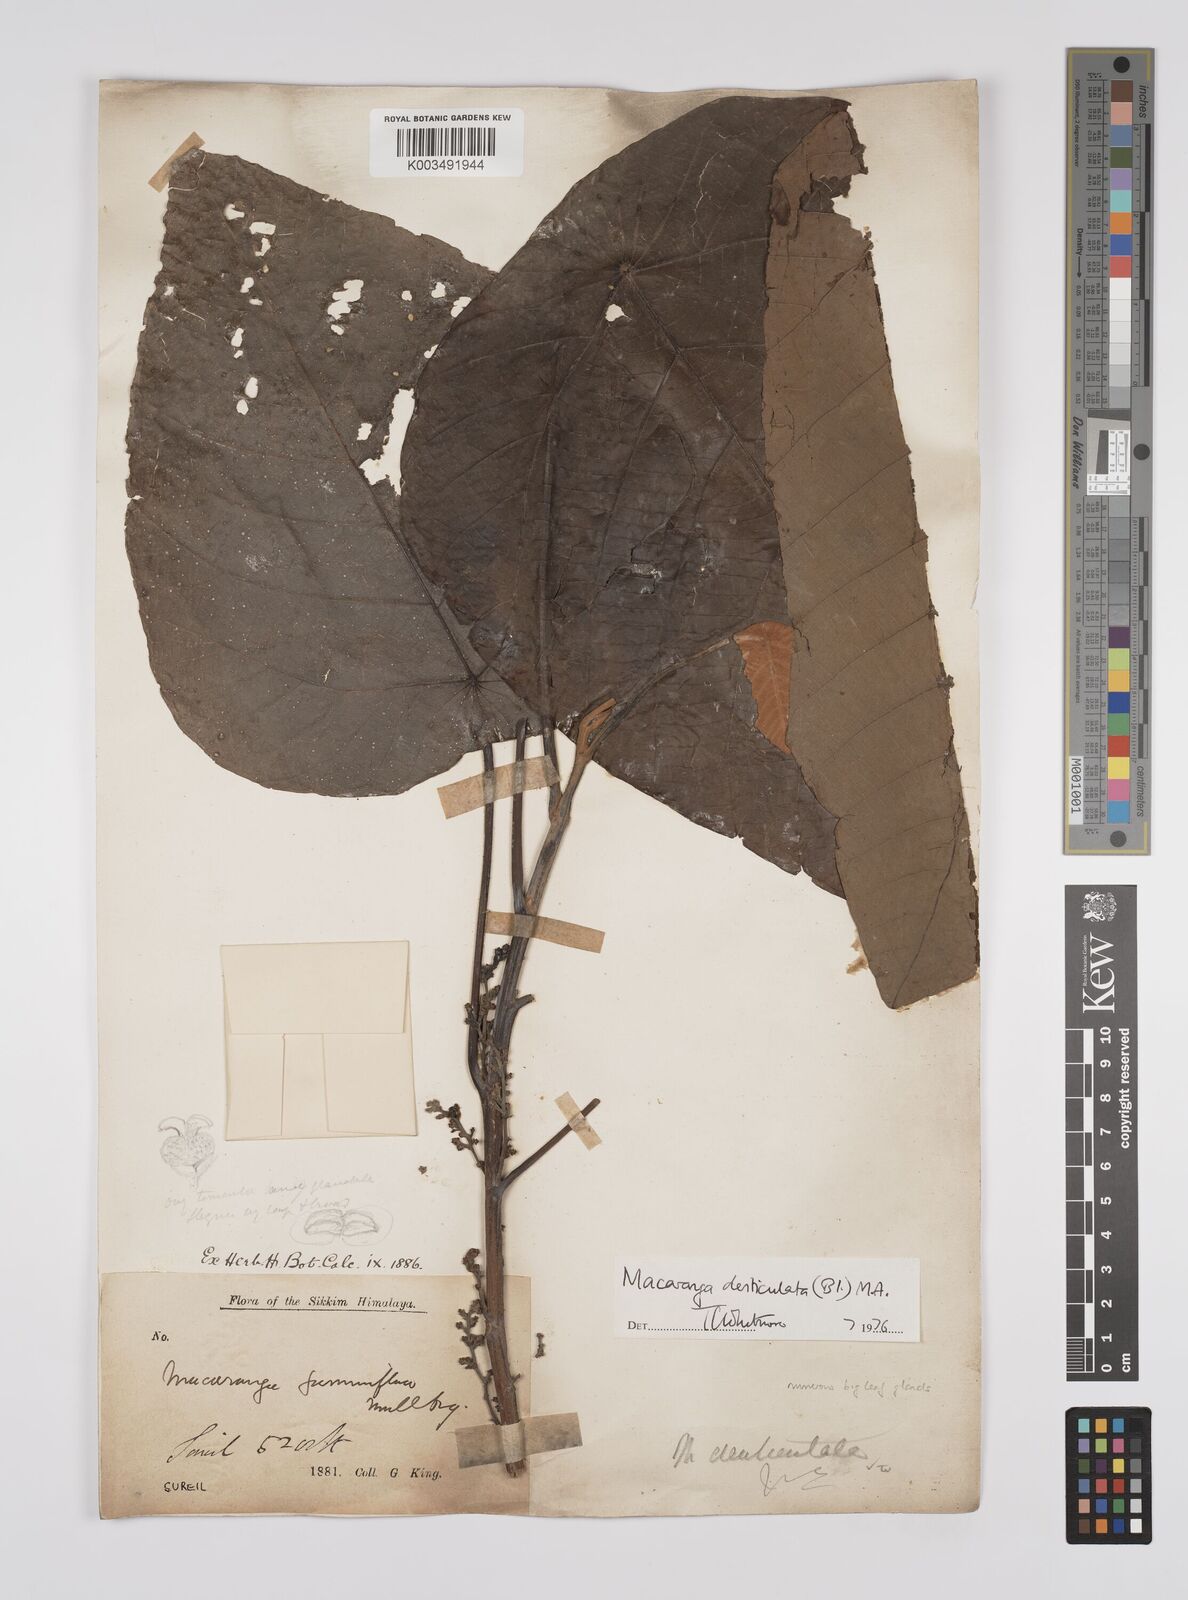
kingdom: Plantae
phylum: Tracheophyta
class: Magnoliopsida
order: Malpighiales
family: Euphorbiaceae
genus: Macaranga
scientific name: Macaranga denticulata
